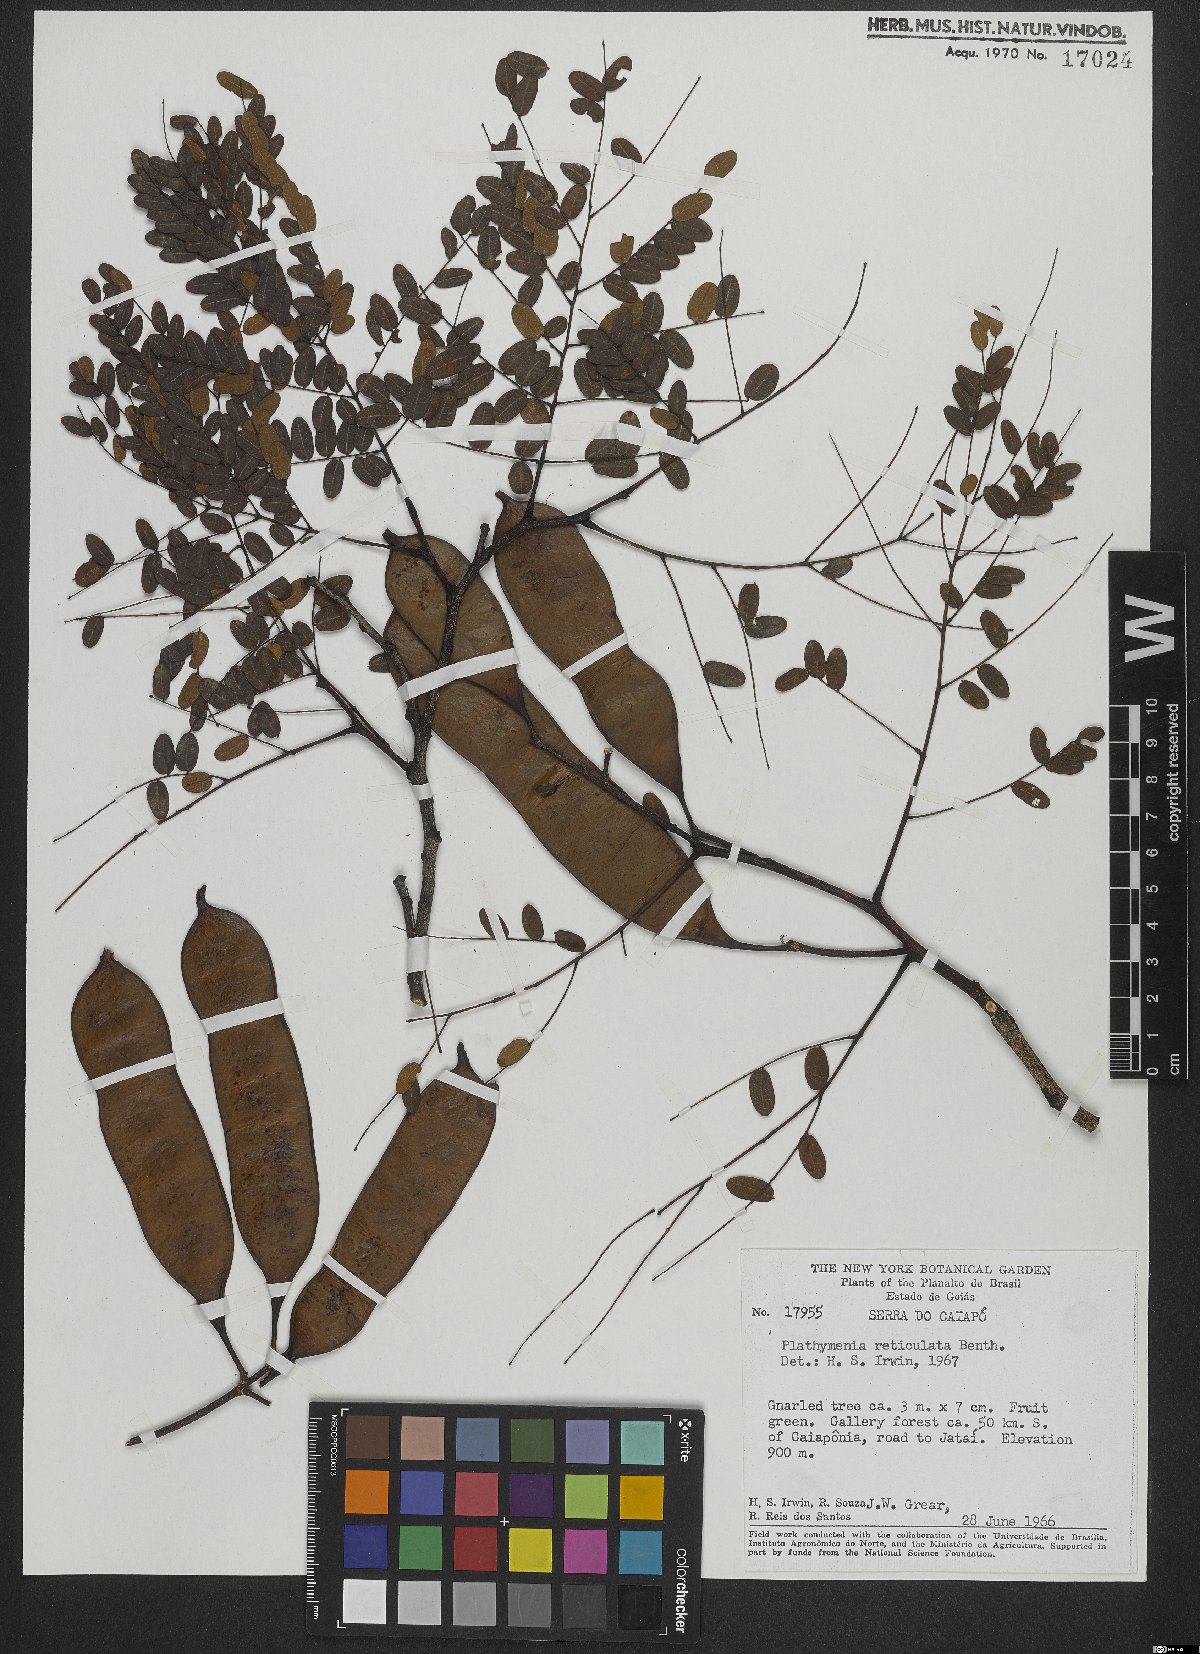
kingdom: Plantae
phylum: Tracheophyta
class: Magnoliopsida
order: Fabales
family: Fabaceae
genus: Plathymenia
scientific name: Plathymenia reticulata
